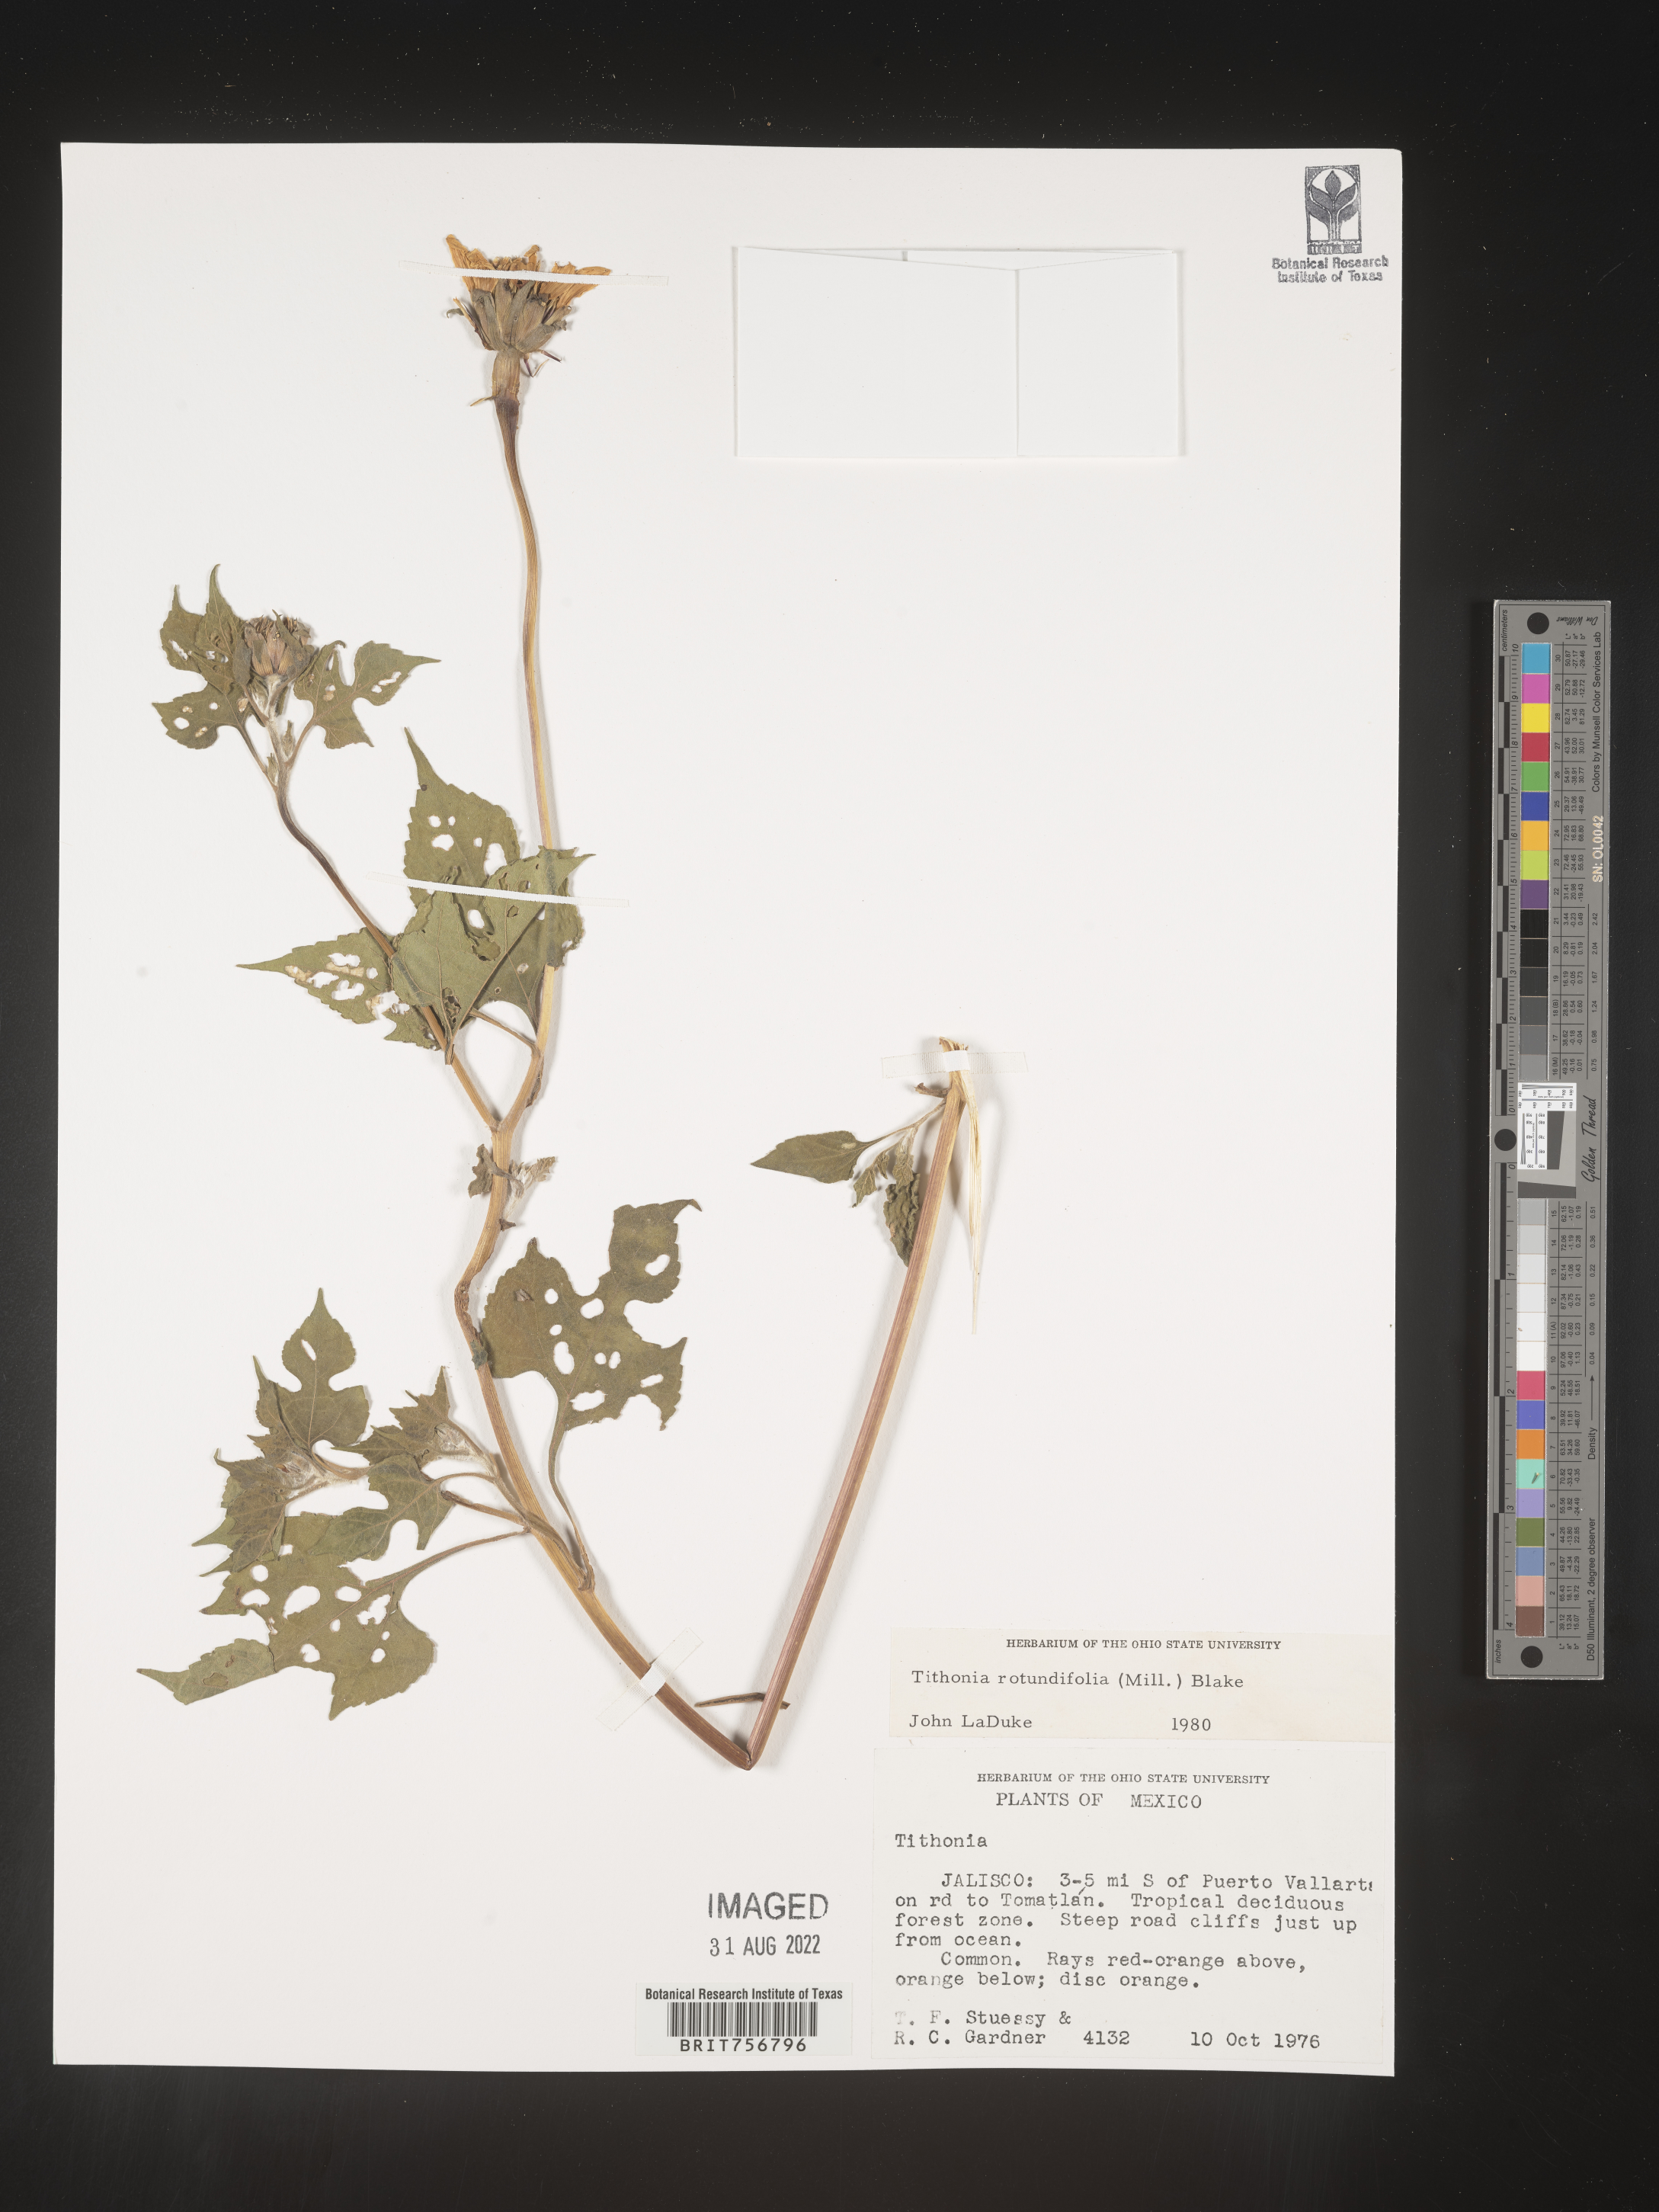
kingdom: Plantae
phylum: Tracheophyta
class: Magnoliopsida
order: Asterales
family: Asteraceae
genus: Tithonia
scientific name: Tithonia
